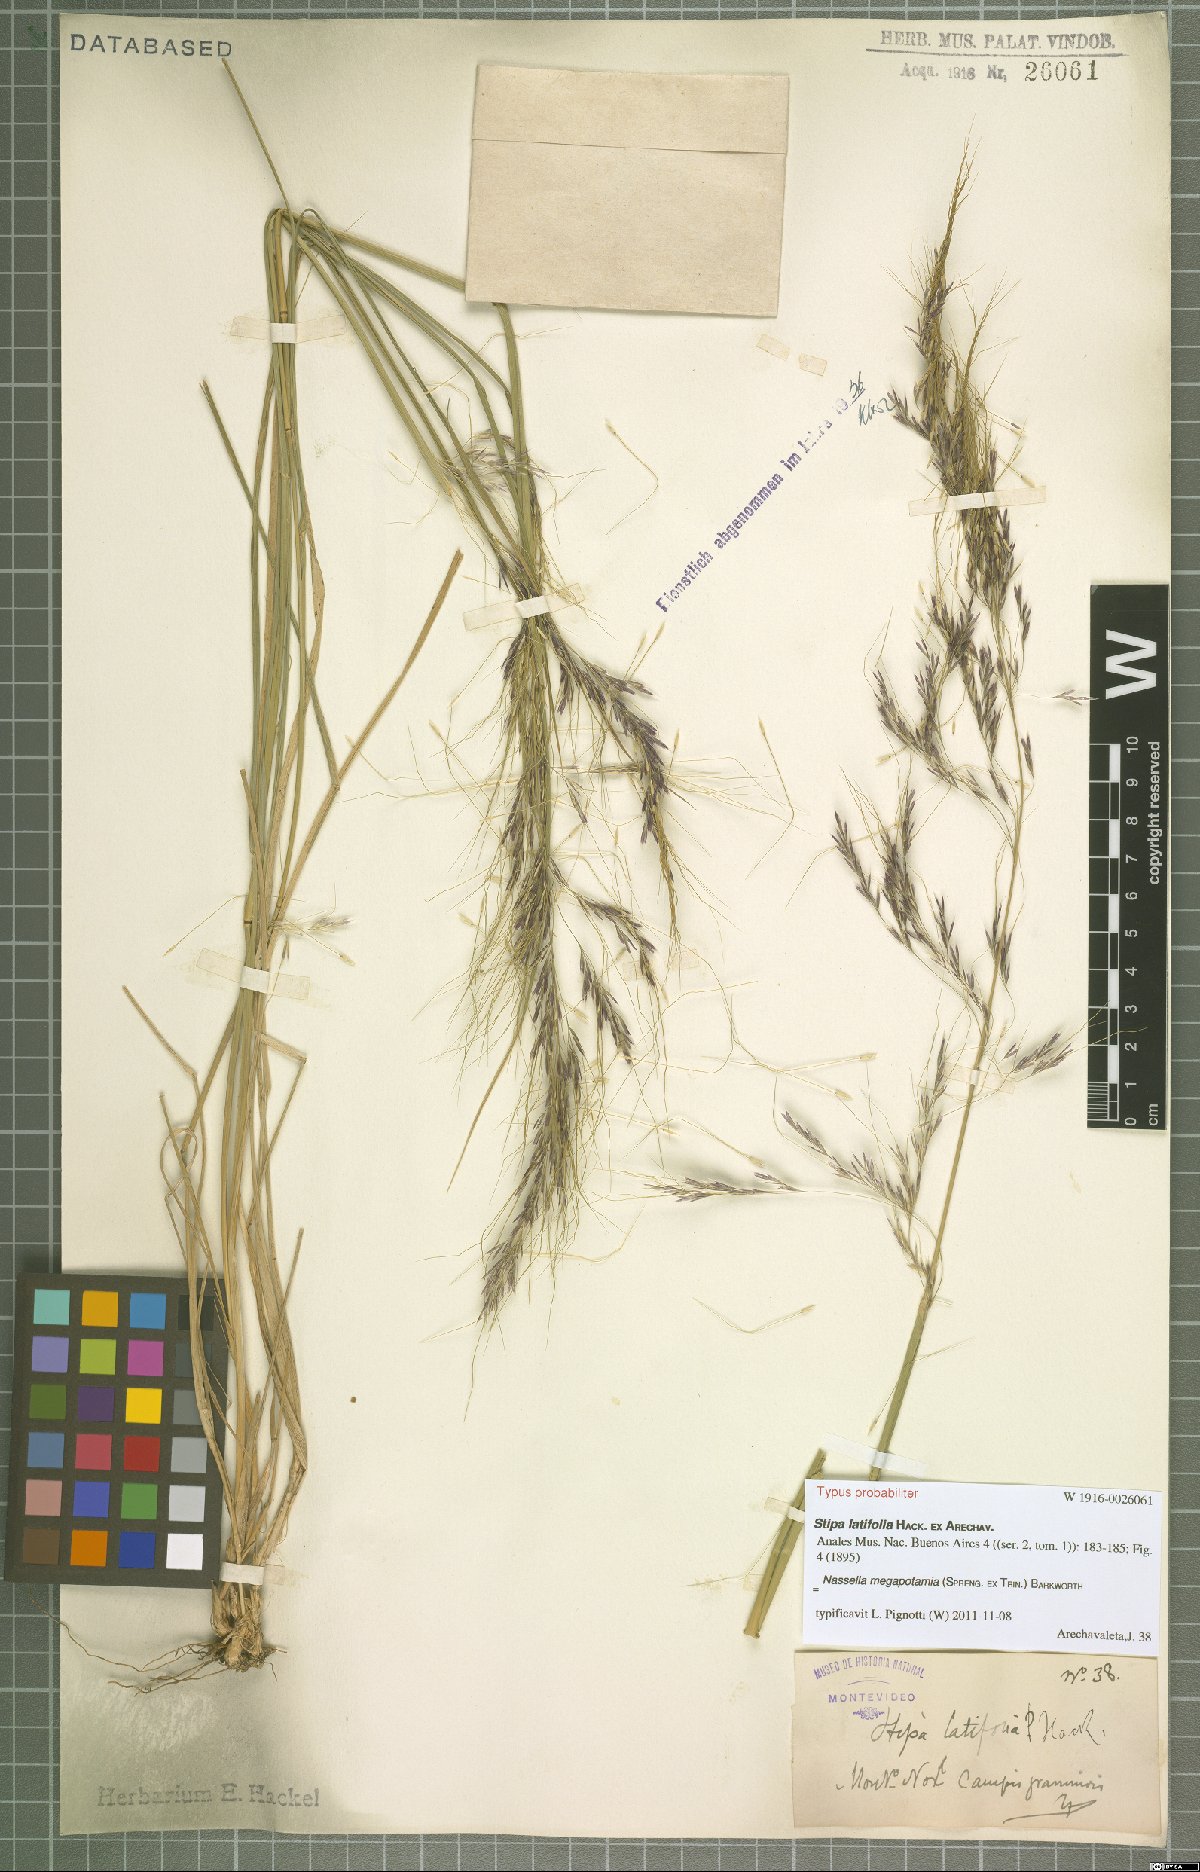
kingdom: Plantae
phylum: Tracheophyta
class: Liliopsida
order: Poales
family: Poaceae
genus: Jarava
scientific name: Jarava filifolia
